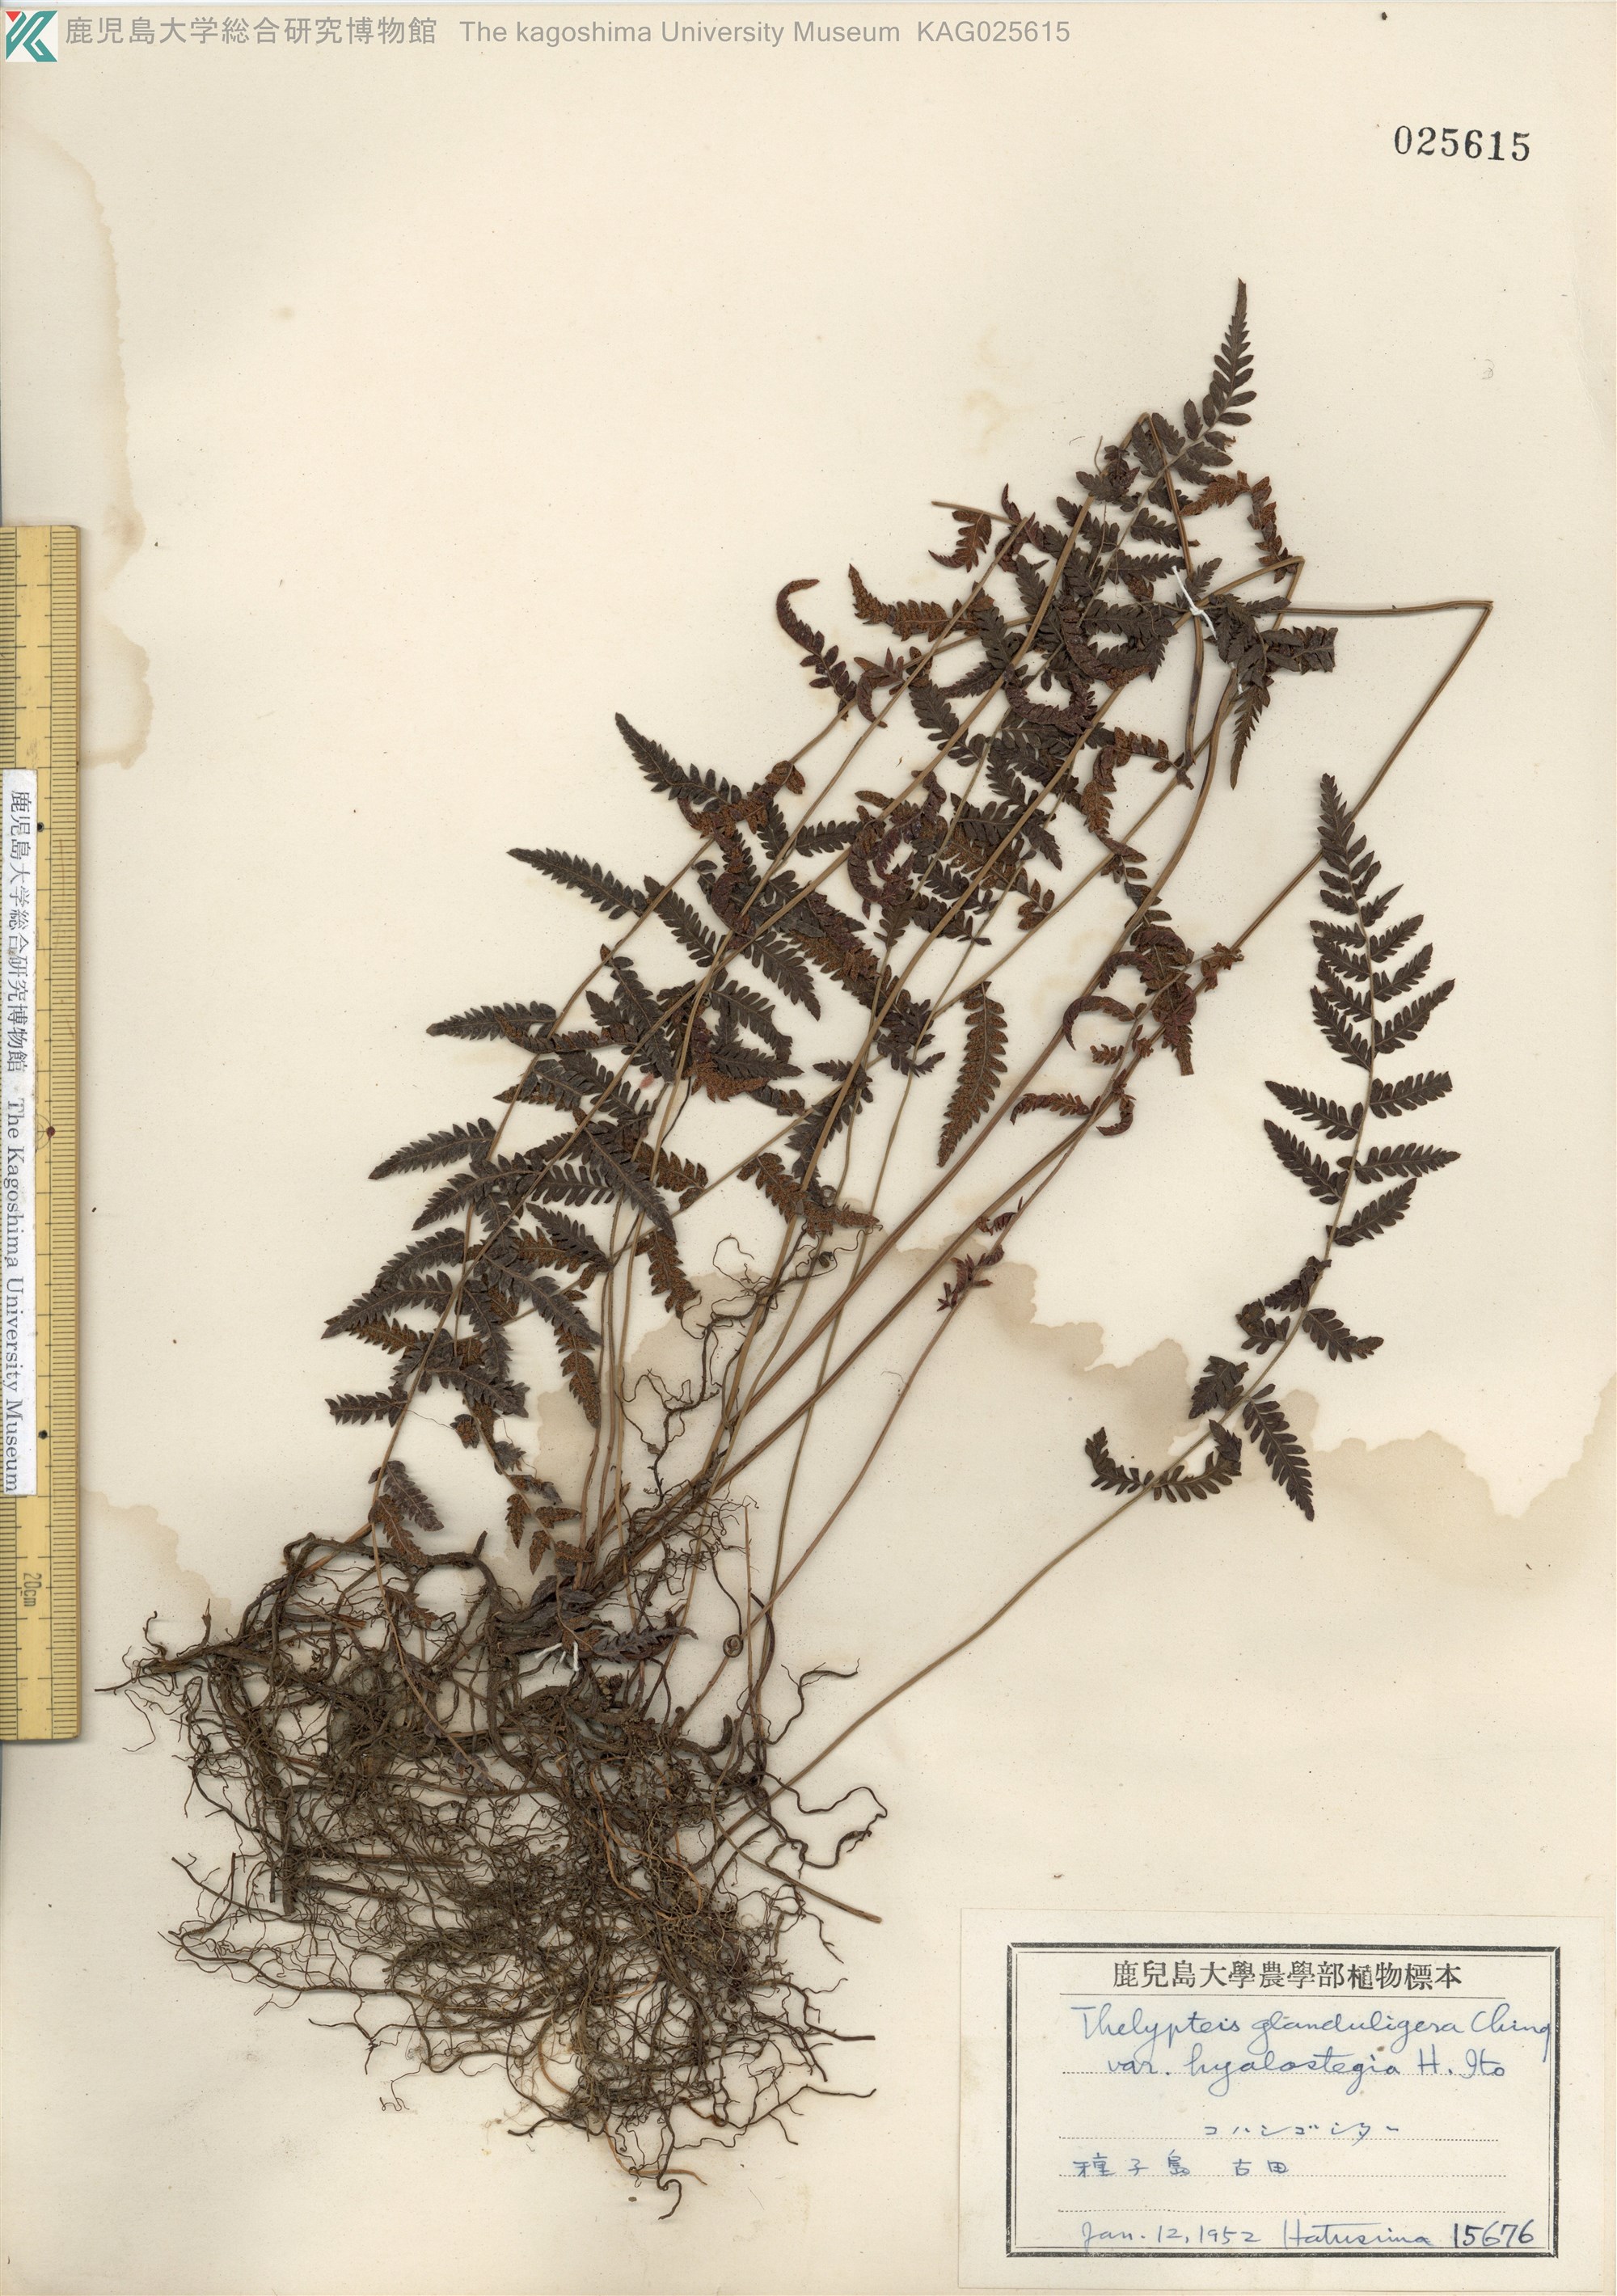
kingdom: Plantae
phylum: Tracheophyta
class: Polypodiopsida
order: Polypodiales
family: Thelypteridaceae
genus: Amauropelta
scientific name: Amauropelta angustifrons
